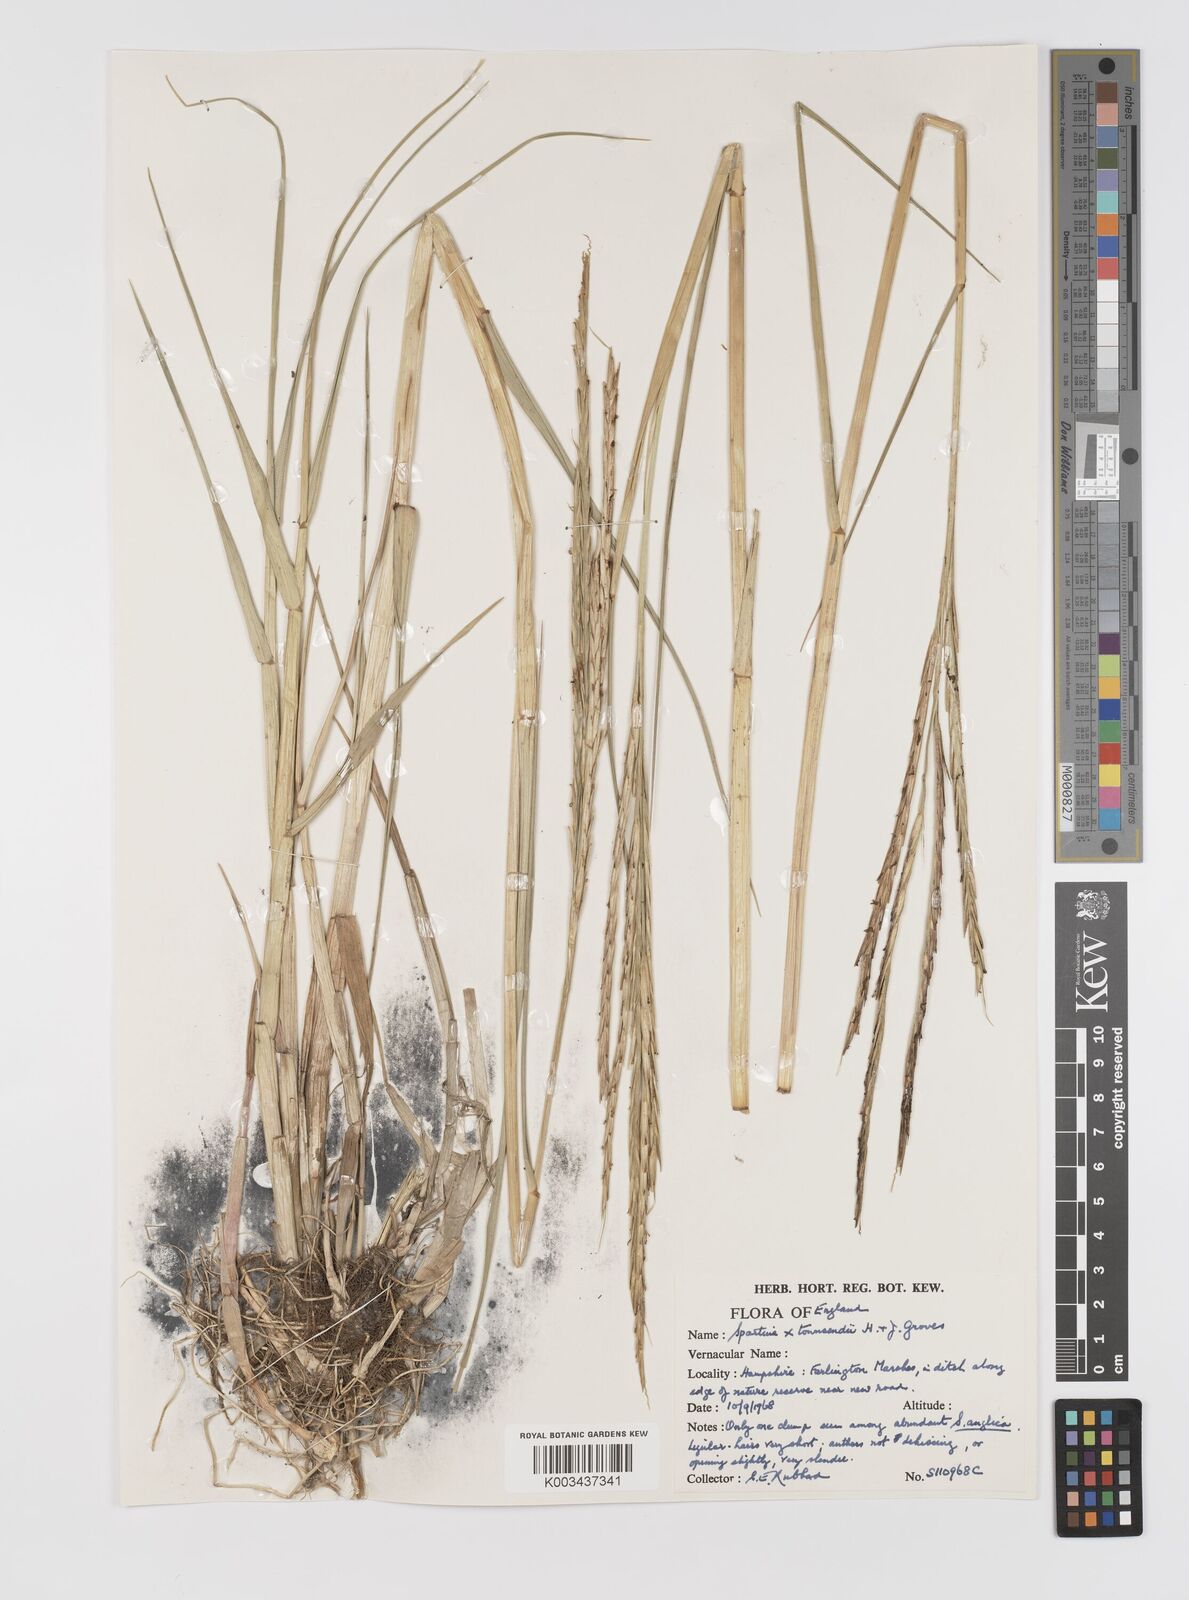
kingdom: Plantae
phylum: Tracheophyta
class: Liliopsida
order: Poales
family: Poaceae
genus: Sporobolus
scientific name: Sporobolus townsendii
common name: Townsend's cordgrass
